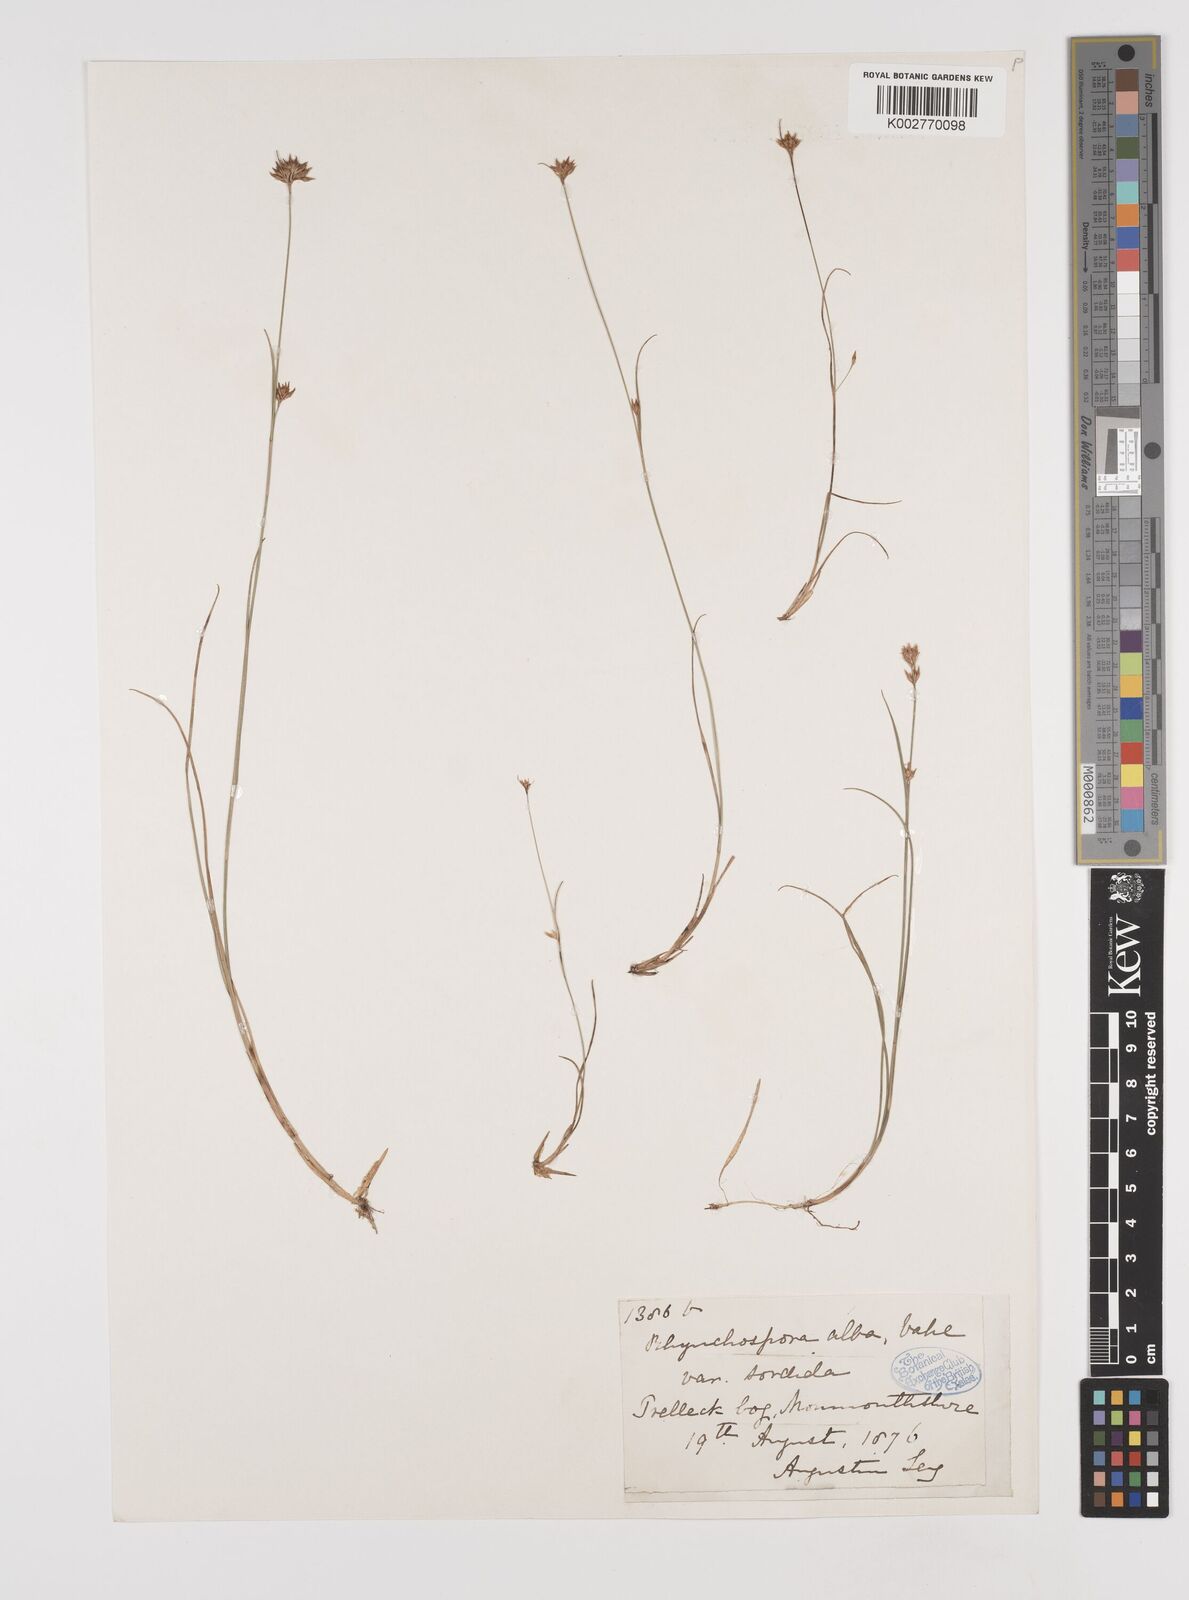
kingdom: Plantae
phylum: Tracheophyta
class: Liliopsida
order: Poales
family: Cyperaceae
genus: Rhynchospora
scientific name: Rhynchospora alba
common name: White beak-sedge
